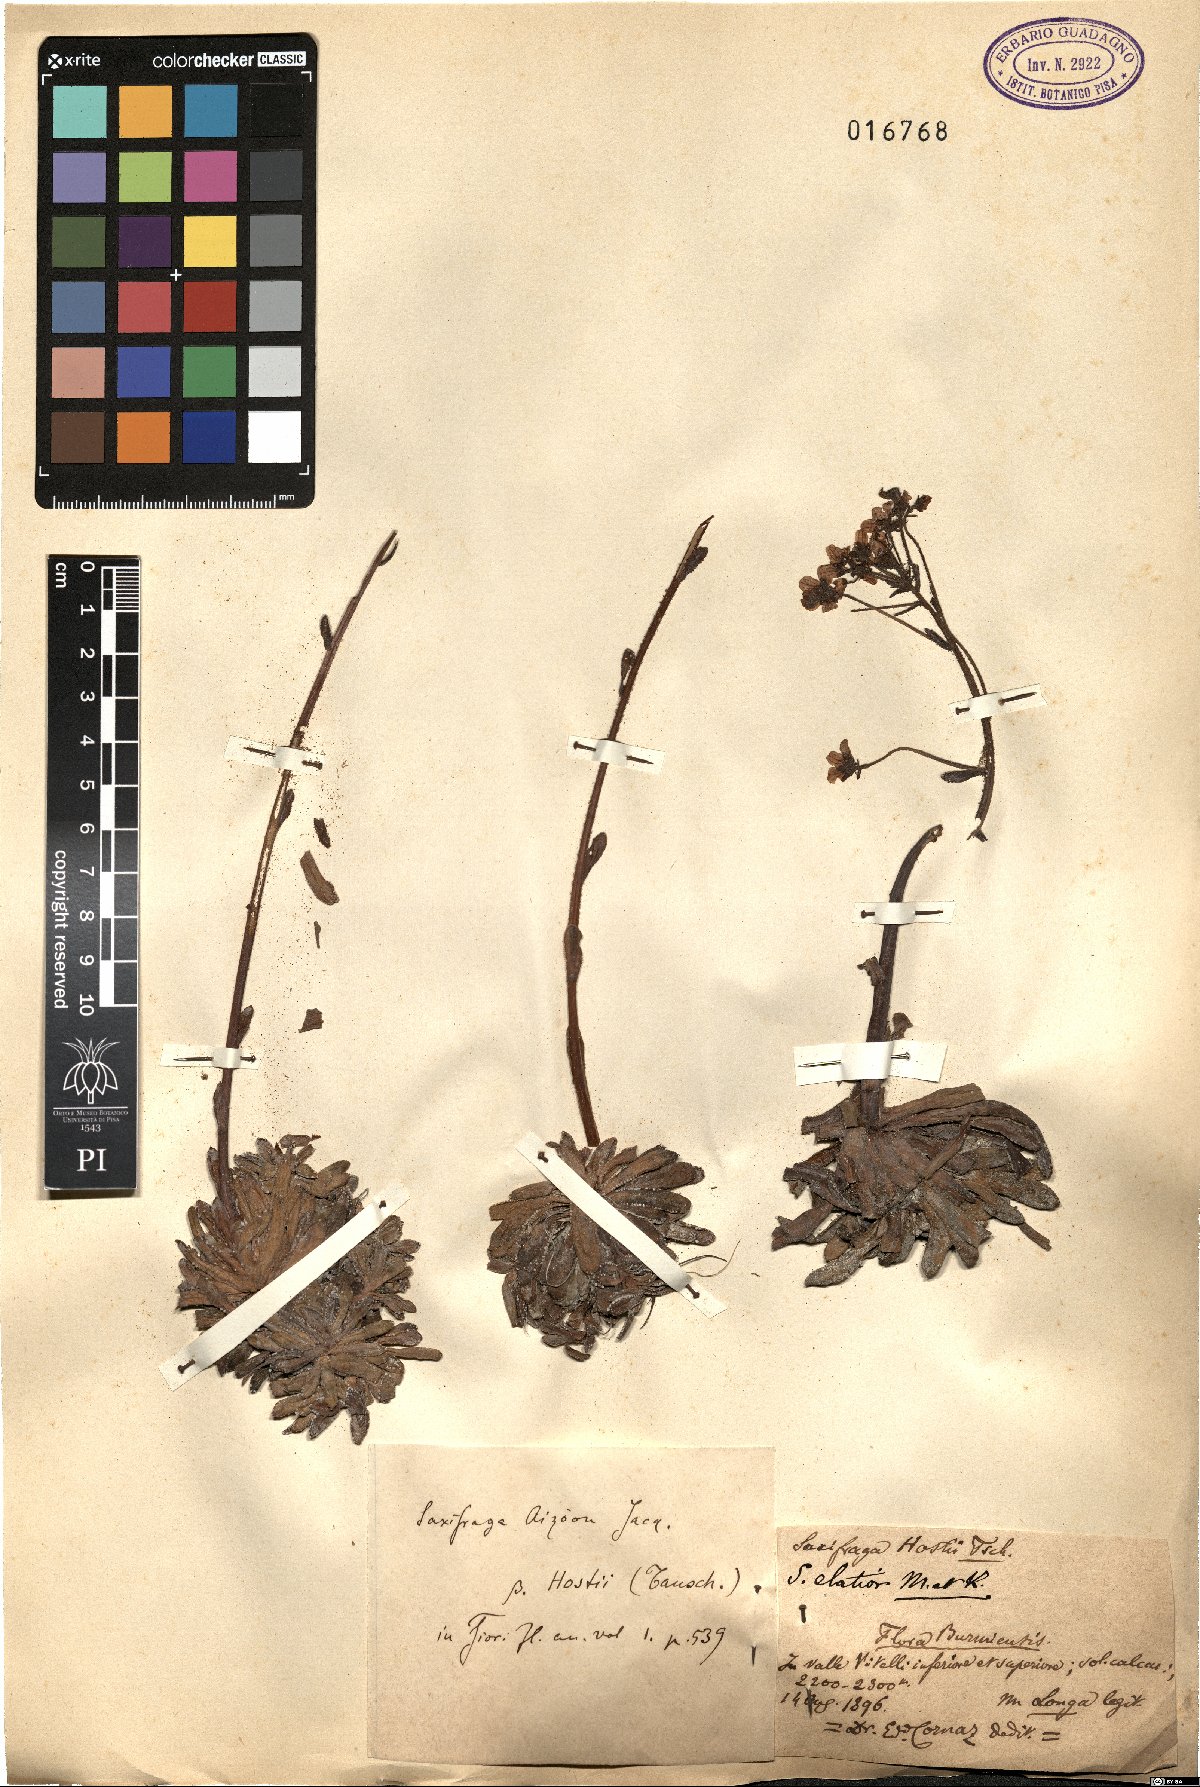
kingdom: Plantae
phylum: Tracheophyta
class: Magnoliopsida
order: Saxifragales
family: Saxifragaceae
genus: Saxifraga
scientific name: Saxifraga aizoon
